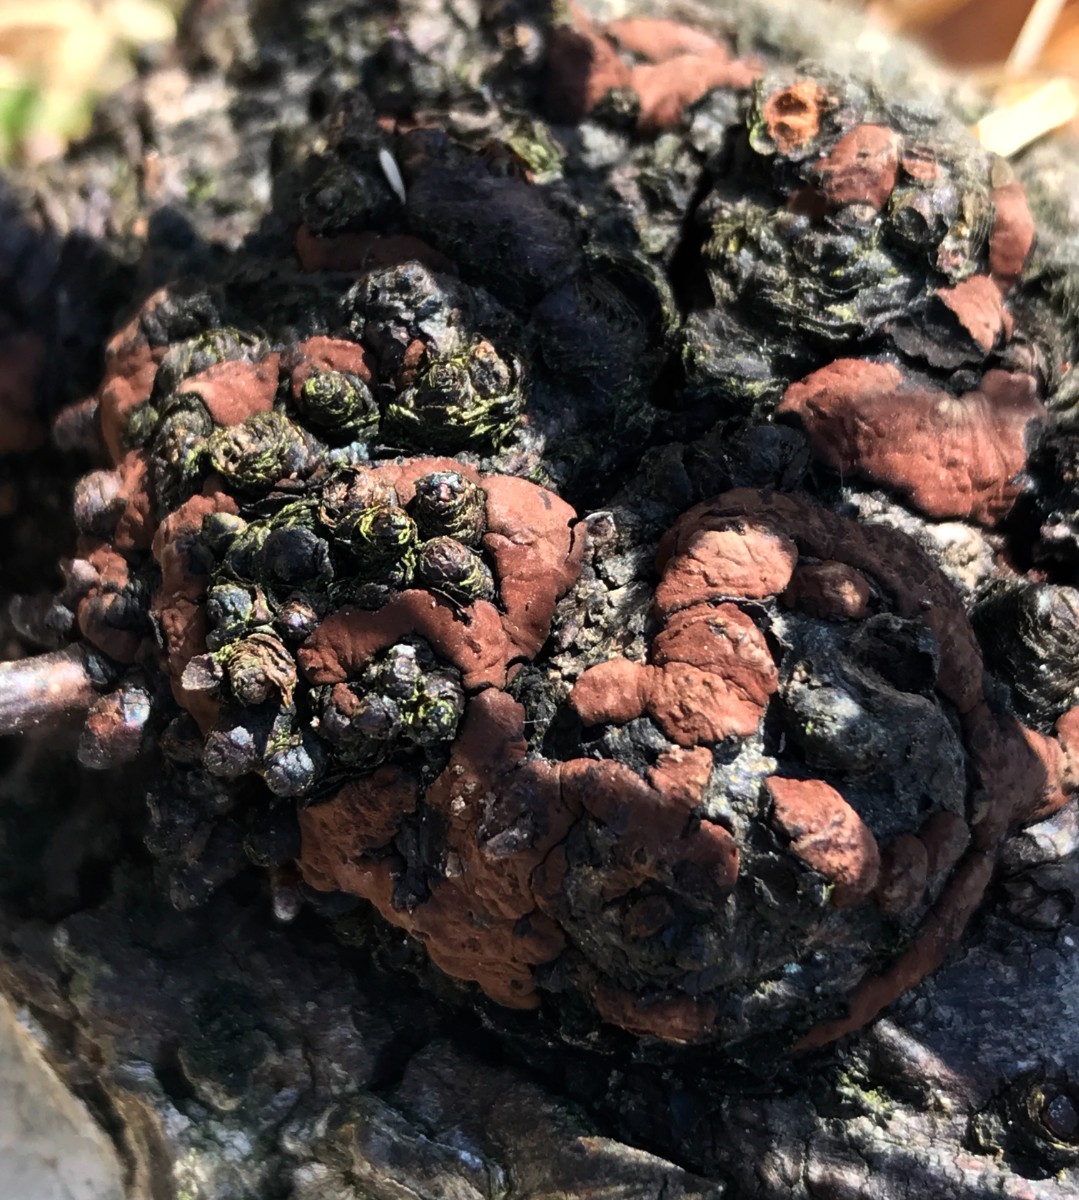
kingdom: Fungi
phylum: Ascomycota
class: Sordariomycetes
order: Xylariales
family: Hypoxylaceae
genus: Jackrogersella
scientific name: Jackrogersella multiformis
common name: foranderlig kulbær
